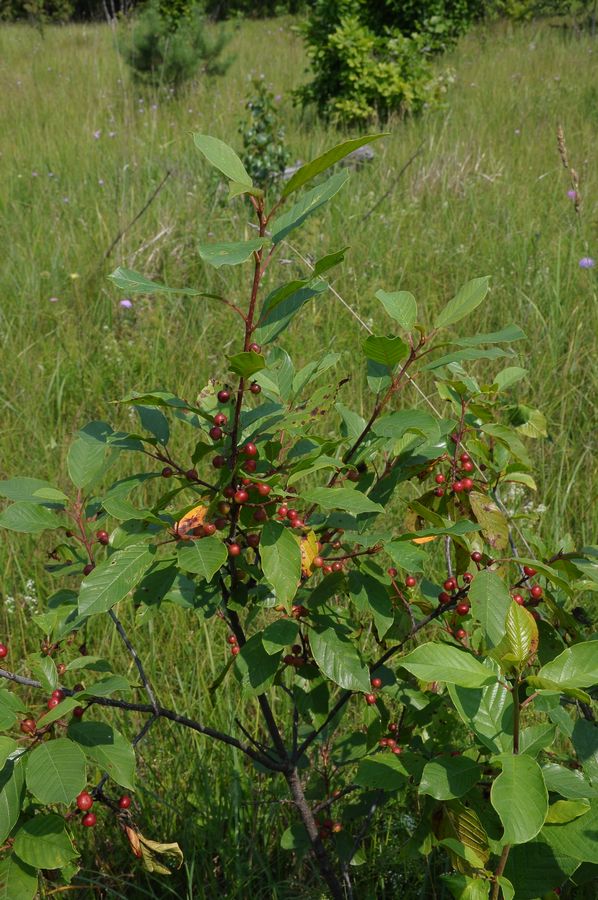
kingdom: Plantae
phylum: Tracheophyta
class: Magnoliopsida
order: Rosales
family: Rhamnaceae
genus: Frangula
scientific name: Frangula alnus
